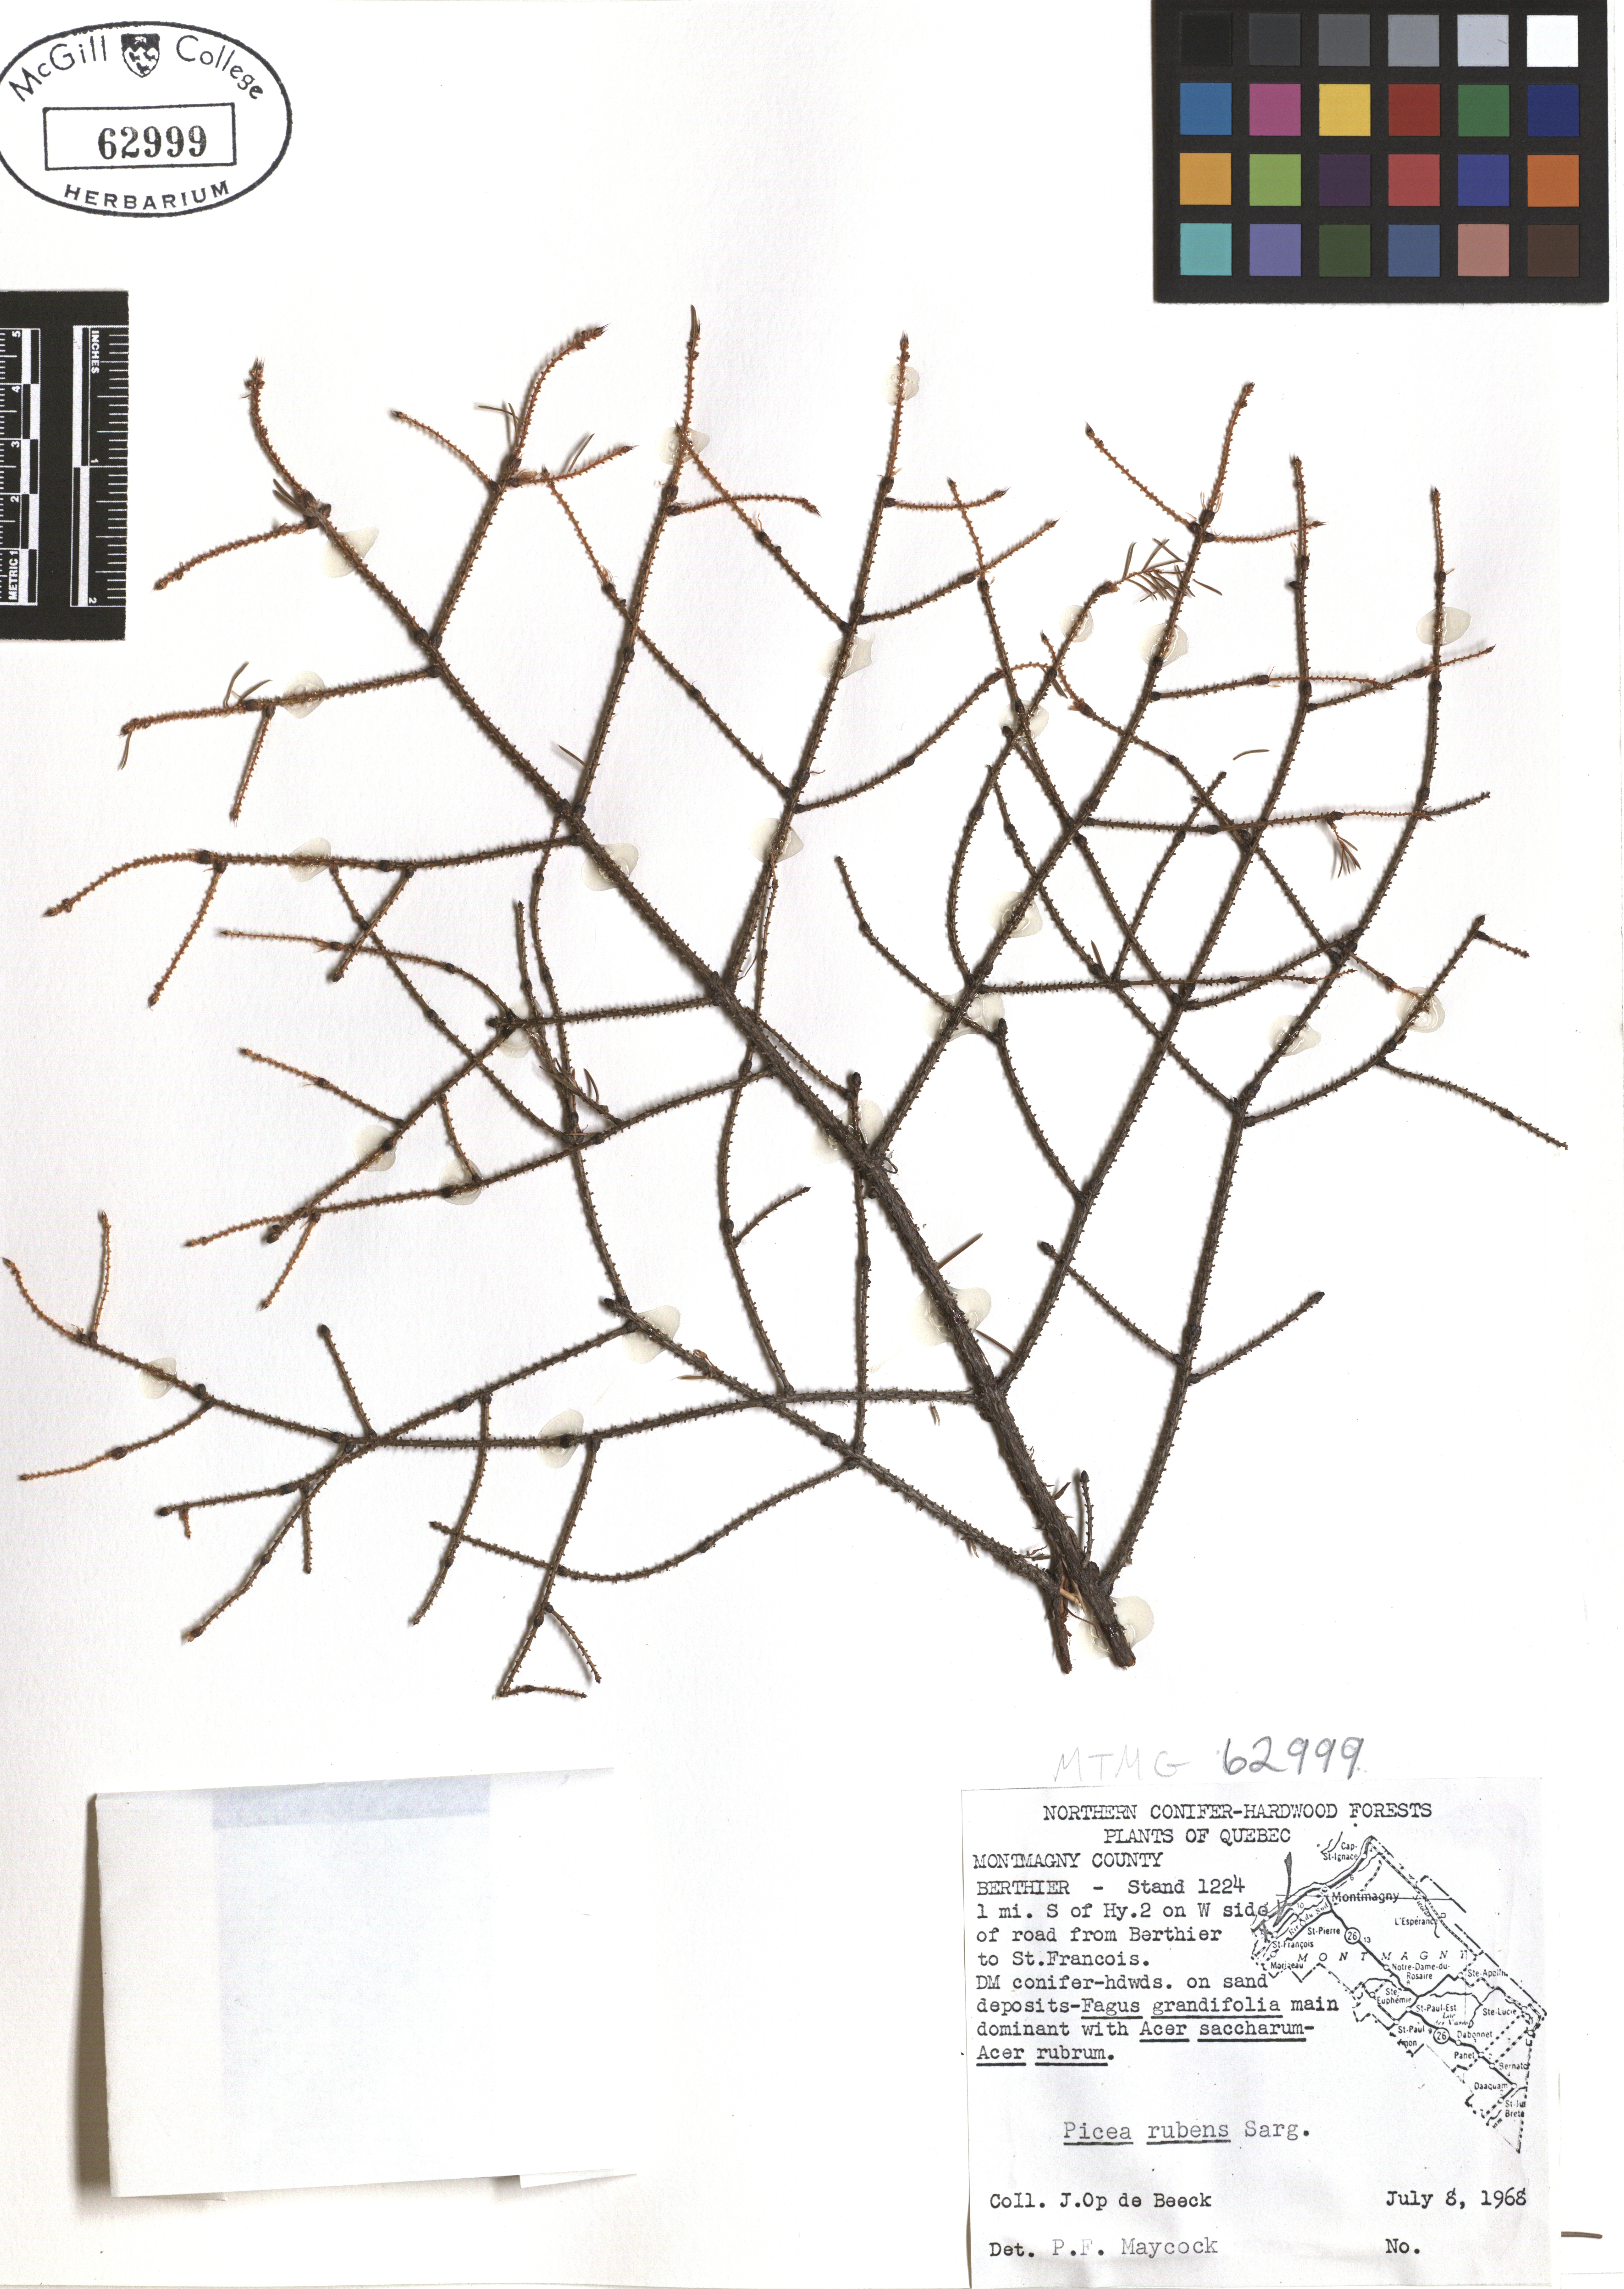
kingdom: Plantae
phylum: Tracheophyta
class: Pinopsida
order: Pinales
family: Pinaceae
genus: Picea
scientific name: Picea rubens
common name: Red spruce
